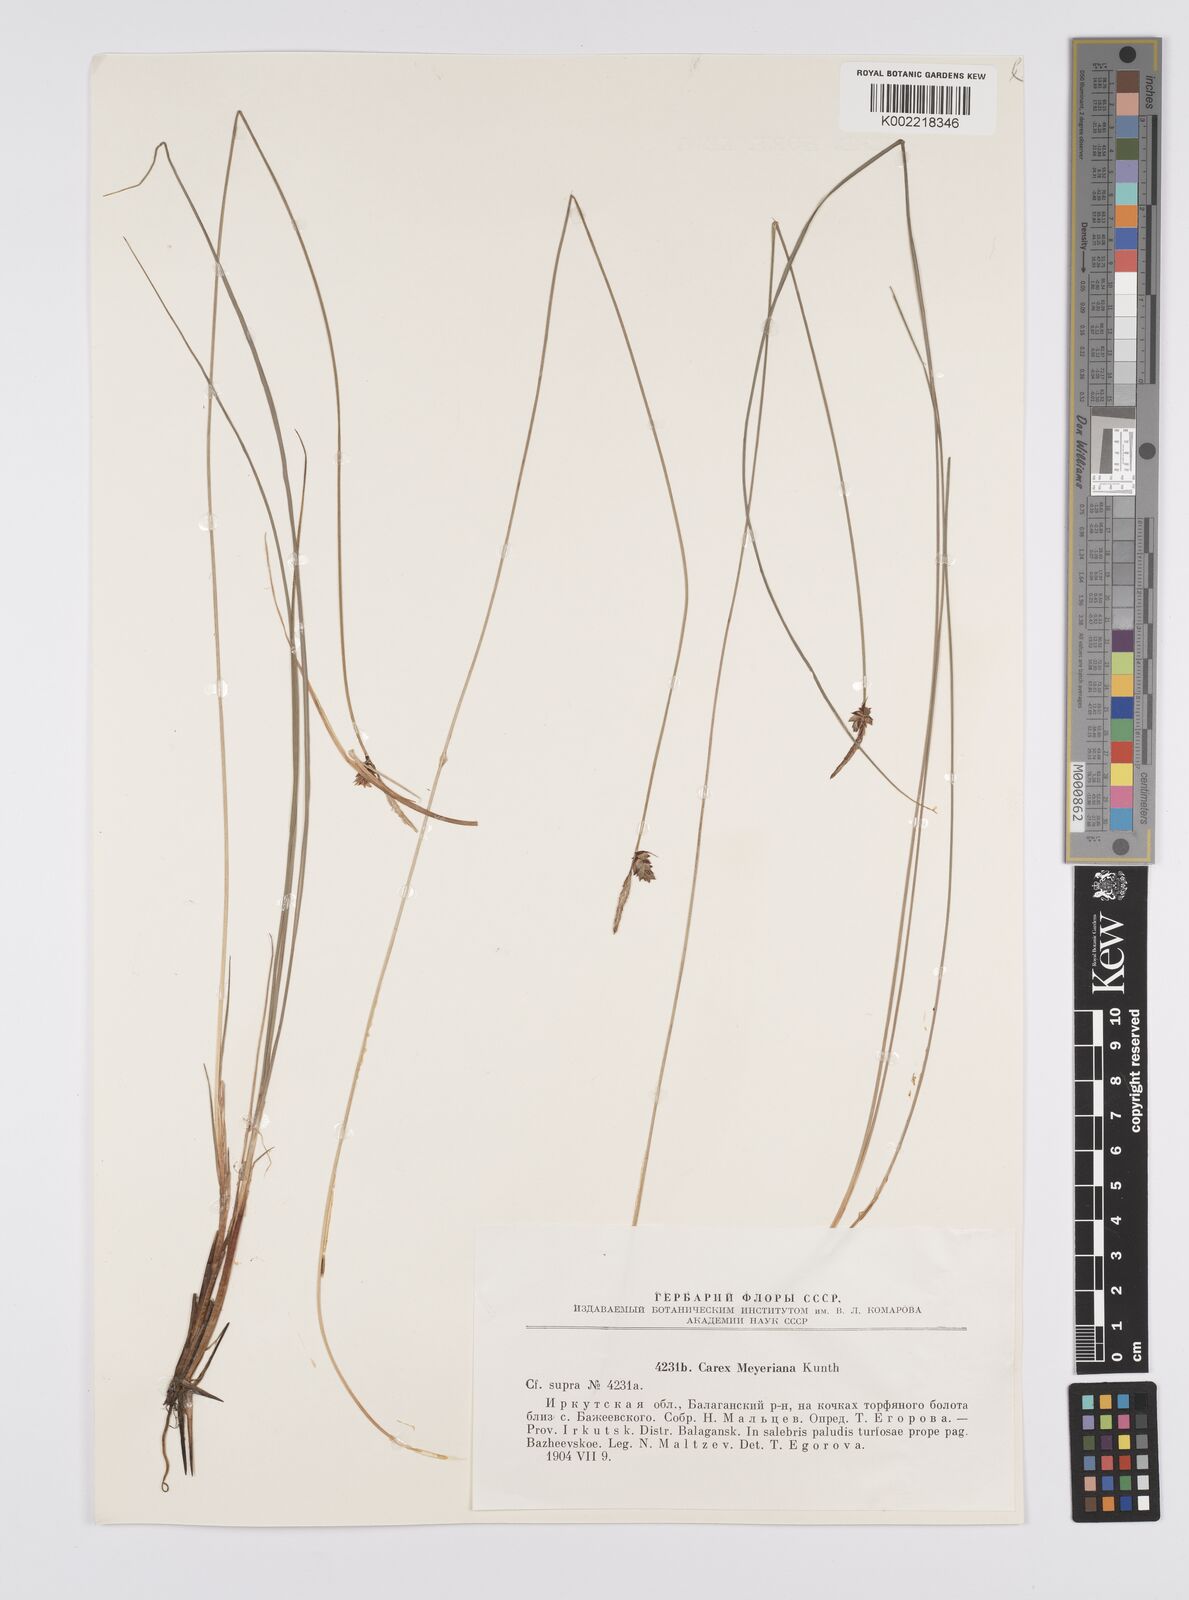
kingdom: Plantae
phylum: Tracheophyta
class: Liliopsida
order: Poales
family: Cyperaceae
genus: Carex
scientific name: Carex meyeriana
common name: Wula sedge
